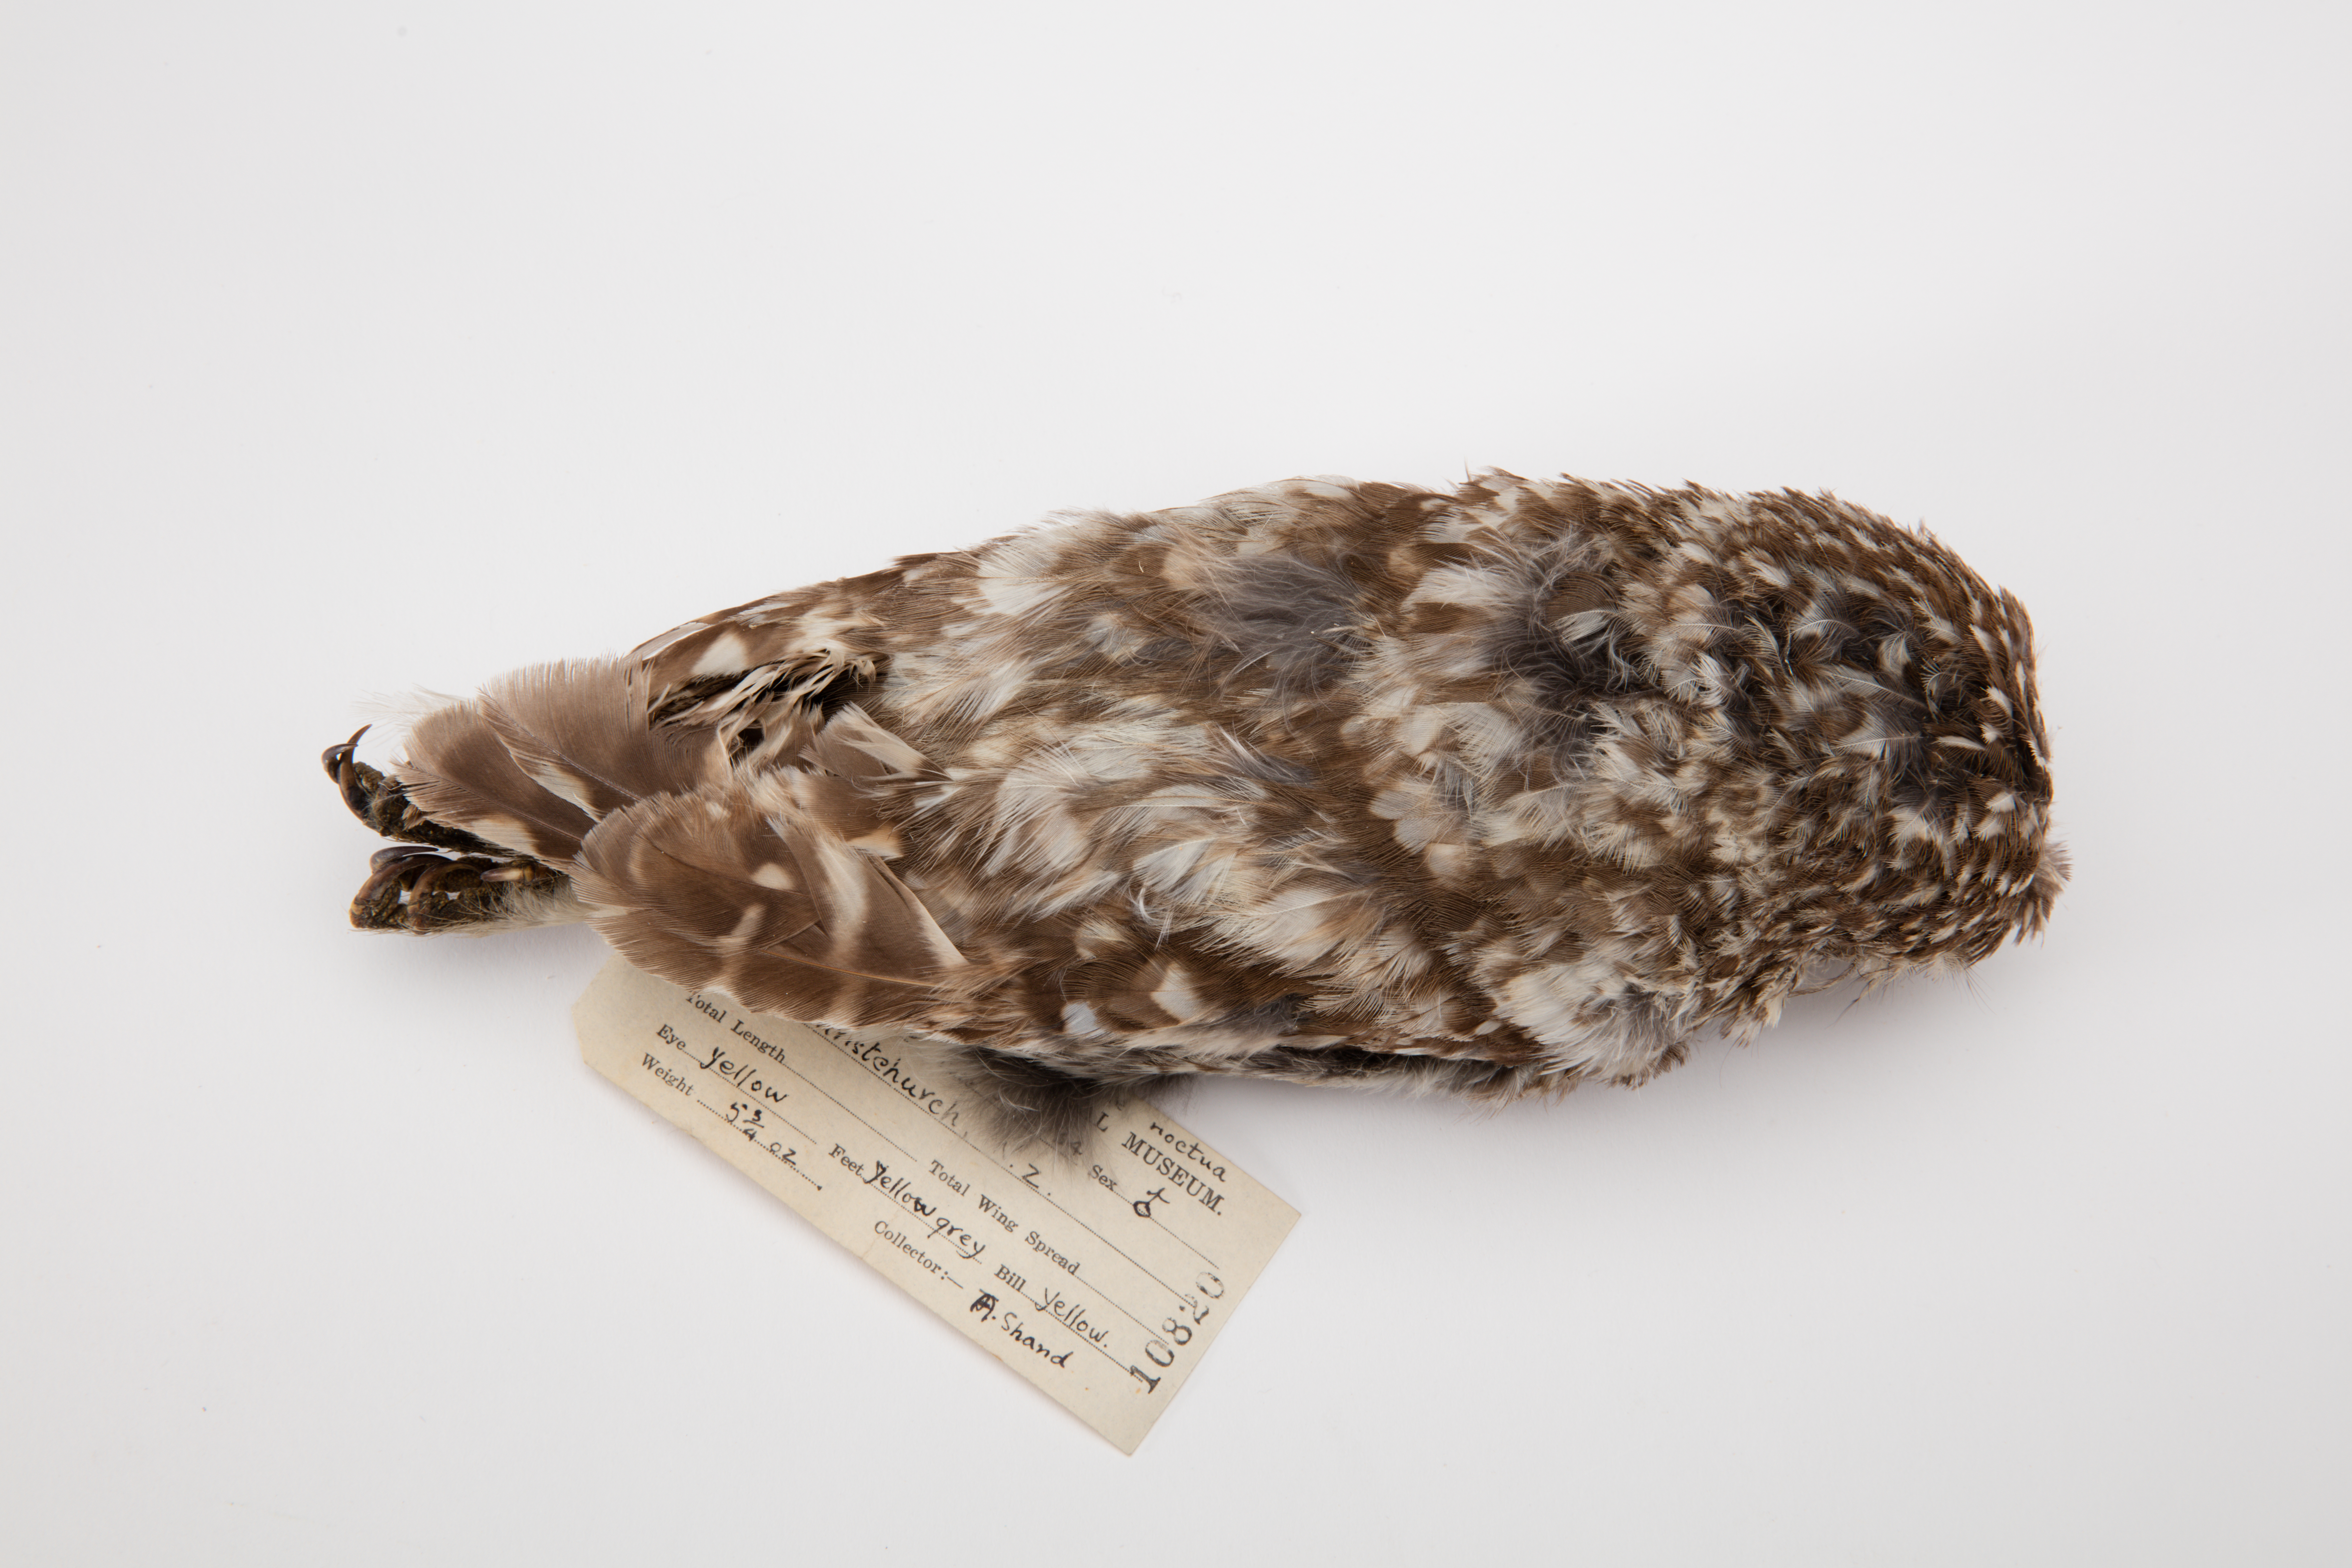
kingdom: Animalia
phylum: Chordata
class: Aves
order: Strigiformes
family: Strigidae
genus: Athene
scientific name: Athene noctua
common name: Little owl
